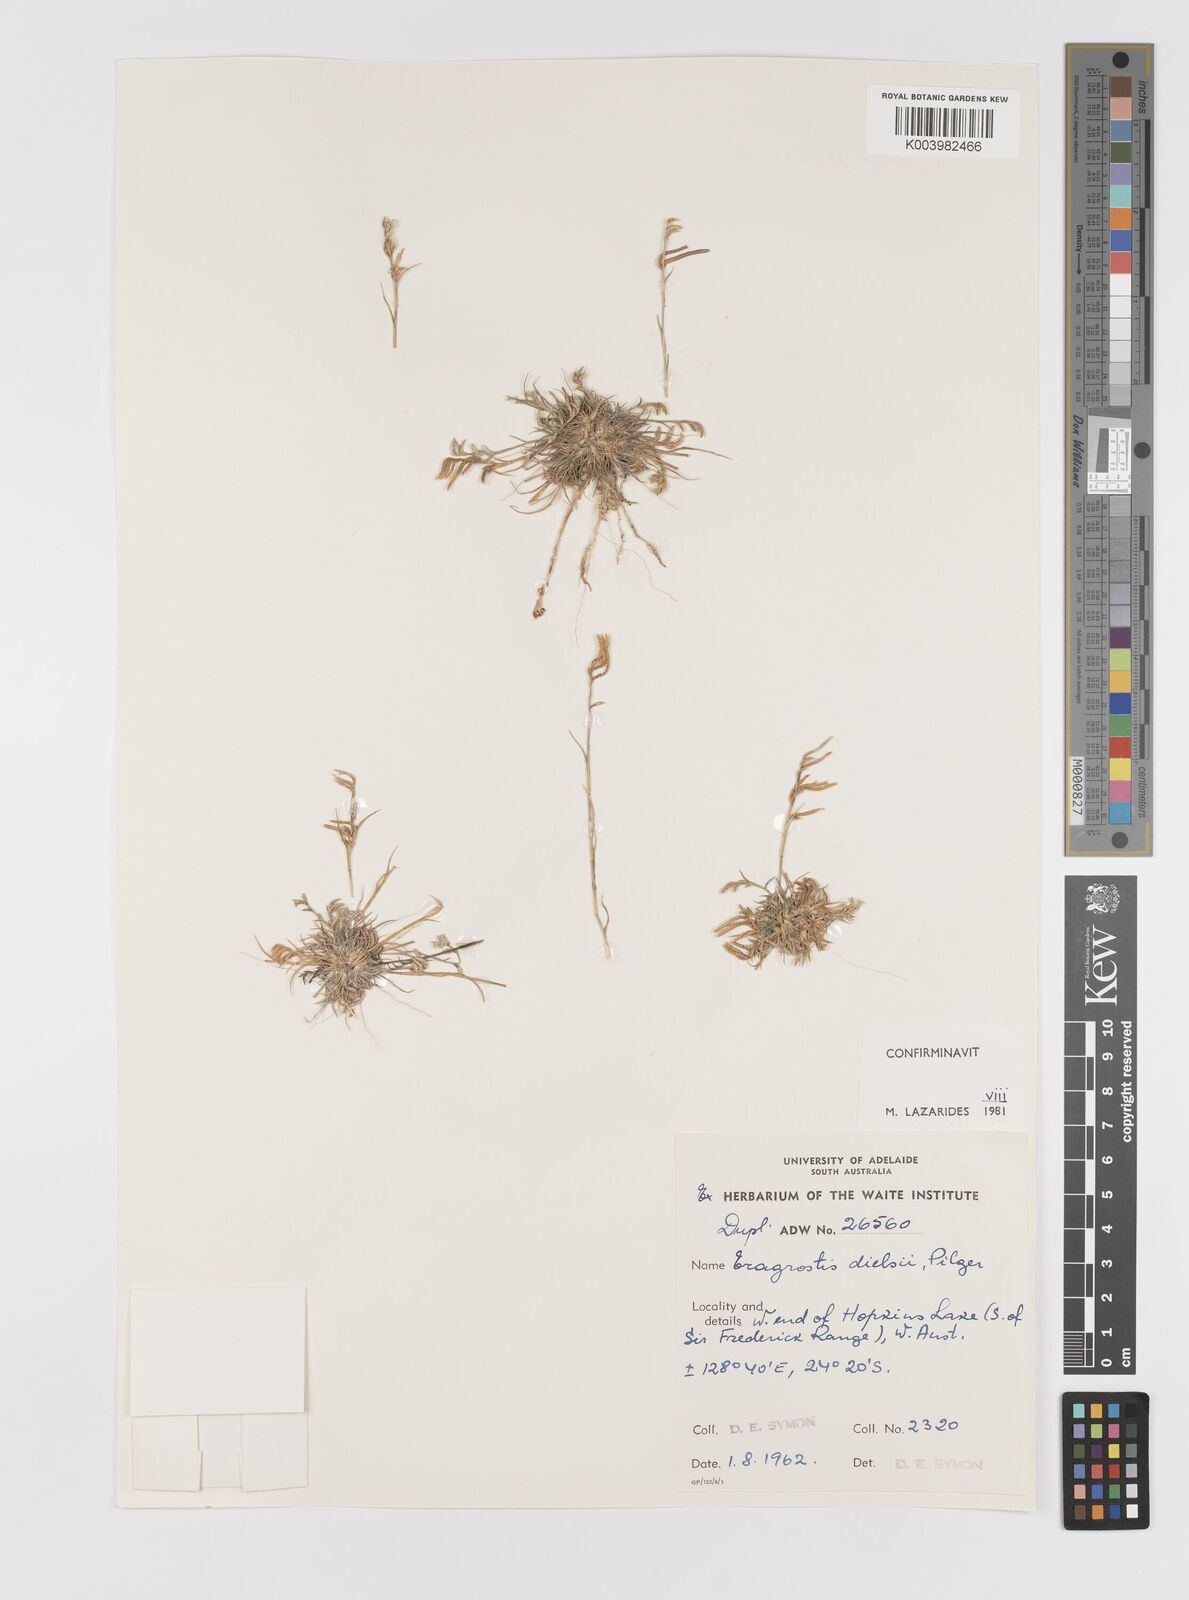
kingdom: Plantae
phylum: Tracheophyta
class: Liliopsida
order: Poales
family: Poaceae
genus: Eragrostis
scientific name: Eragrostis dielsii
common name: Lovegrass
